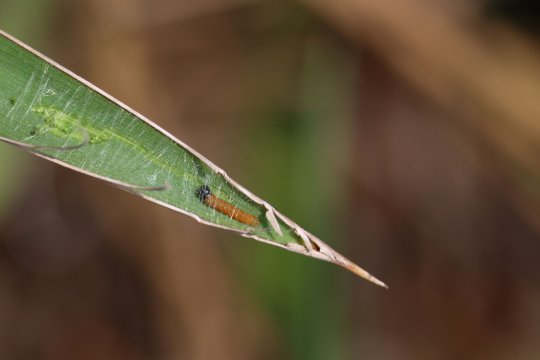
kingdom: Animalia
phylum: Arthropoda
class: Insecta
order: Lepidoptera
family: Hesperiidae
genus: Megathymus
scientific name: Megathymus yuccae
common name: Yucca Giant-Skipper
